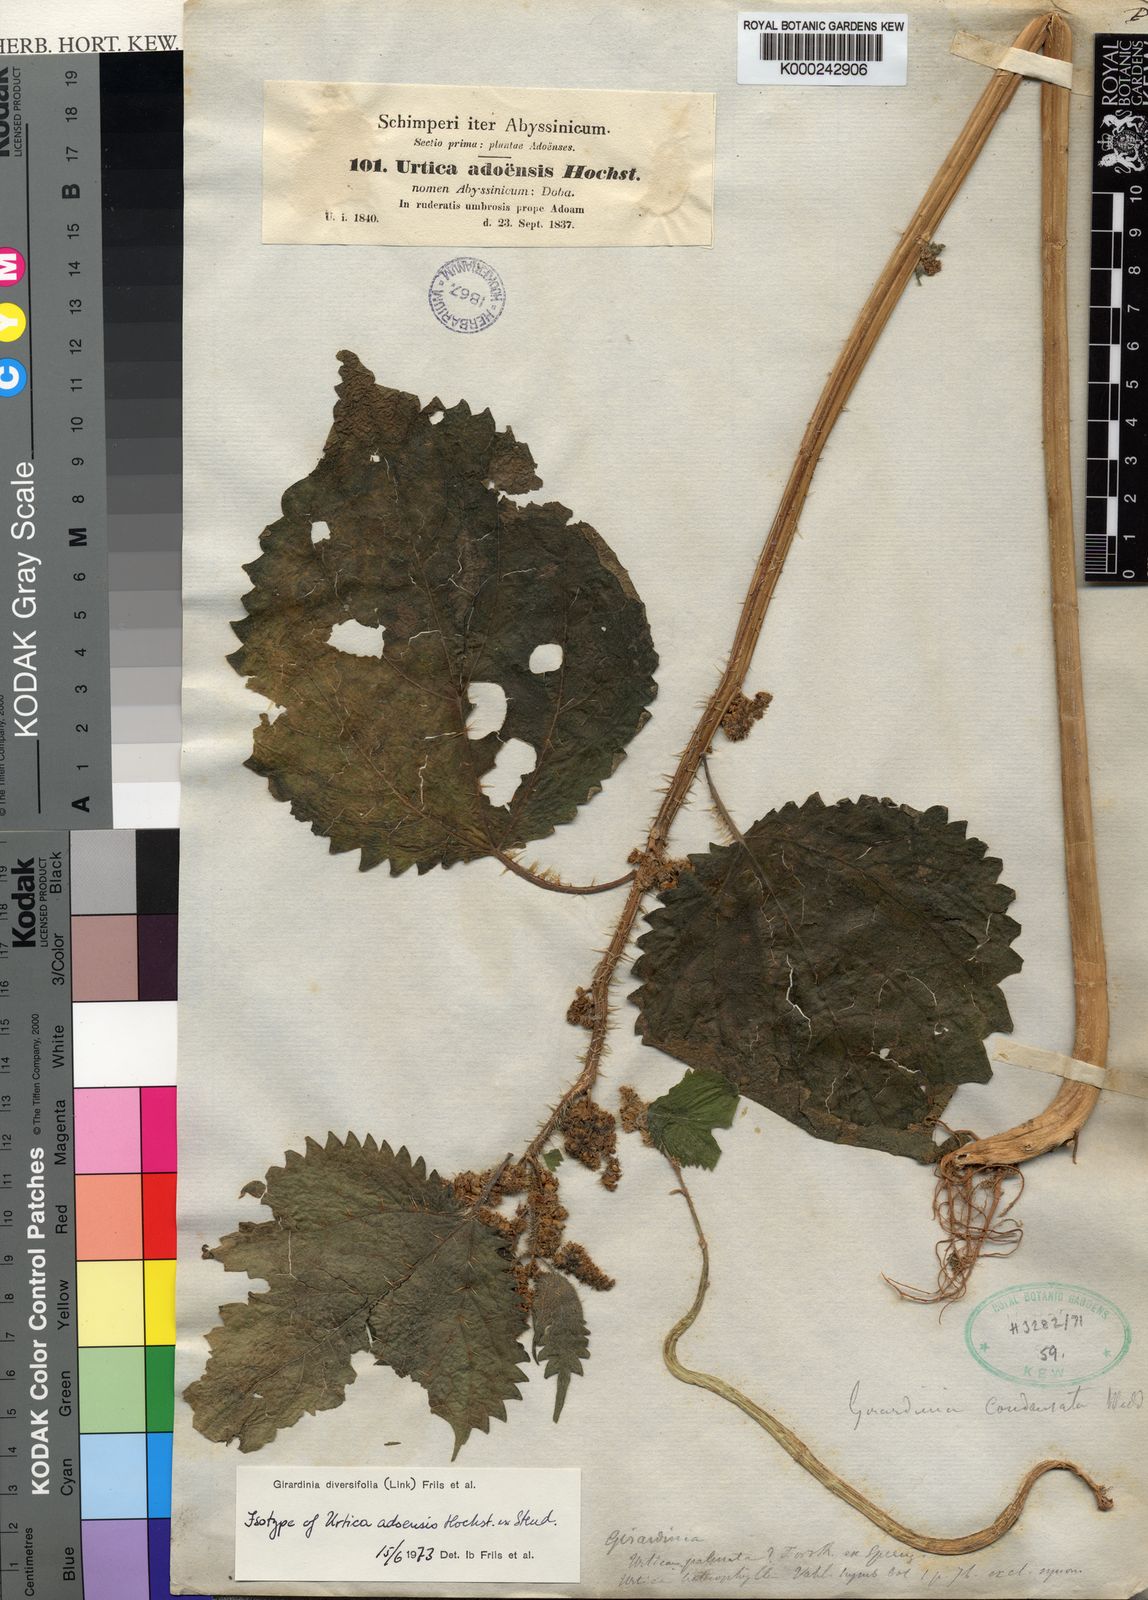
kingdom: Plantae
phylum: Tracheophyta
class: Magnoliopsida
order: Rosales
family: Urticaceae
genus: Girardinia
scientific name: Girardinia diversifolia
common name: Himalayan-nettle
